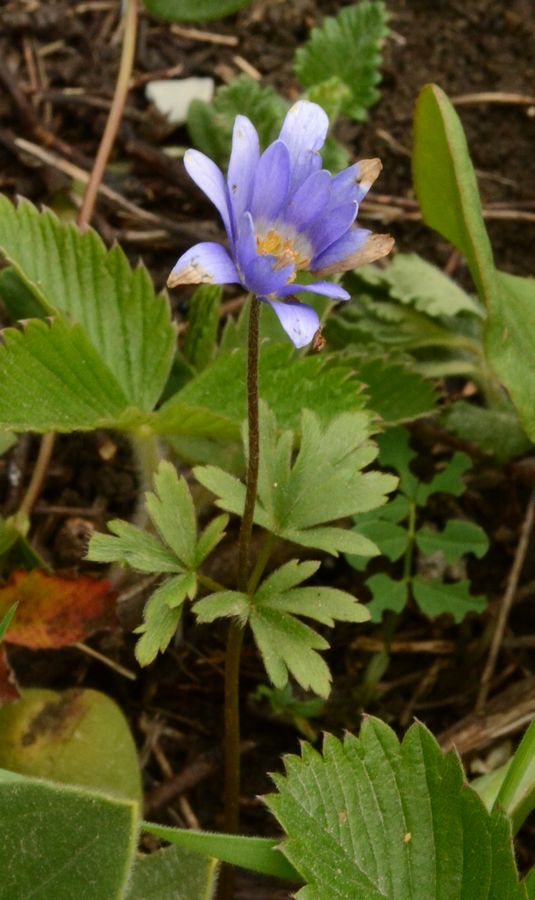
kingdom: Plantae
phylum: Tracheophyta
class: Magnoliopsida
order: Ranunculales
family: Ranunculaceae
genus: Anemone
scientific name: Anemone blanda
